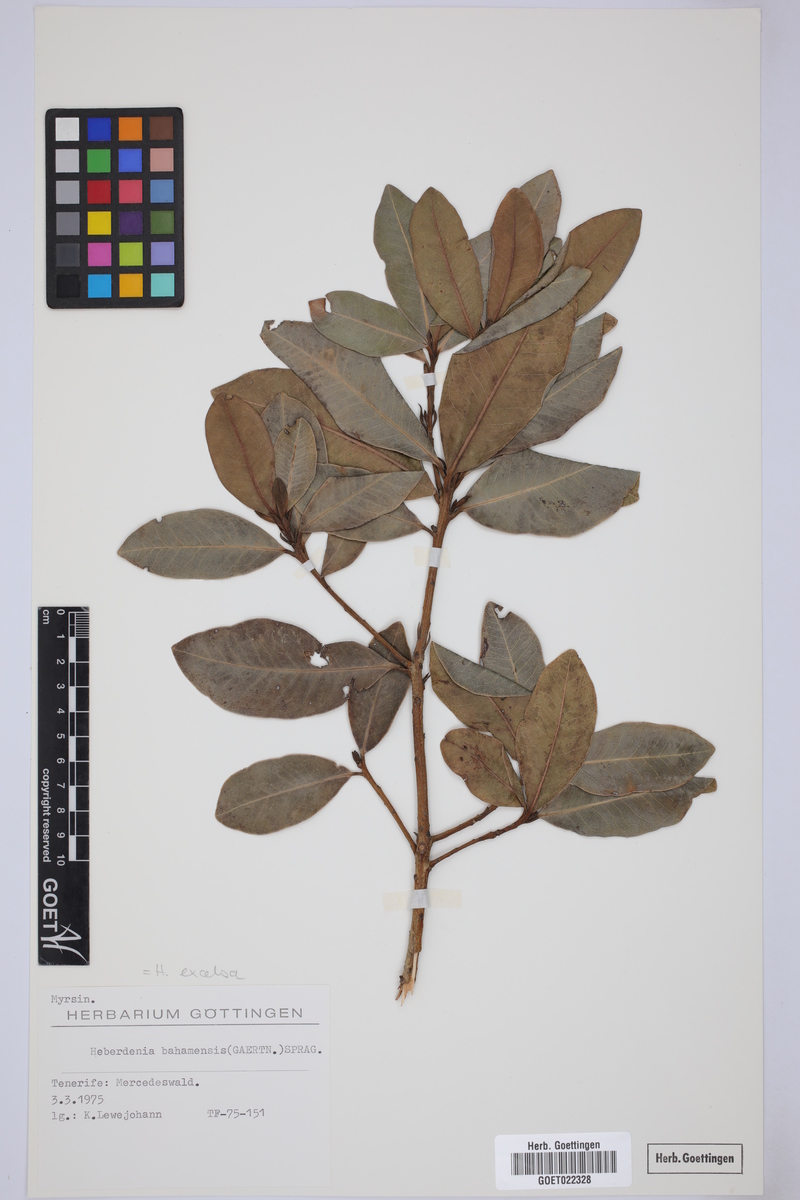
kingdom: Plantae
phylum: Tracheophyta
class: Magnoliopsida
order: Ericales
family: Primulaceae
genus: Heberdenia
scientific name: Heberdenia excelsa
